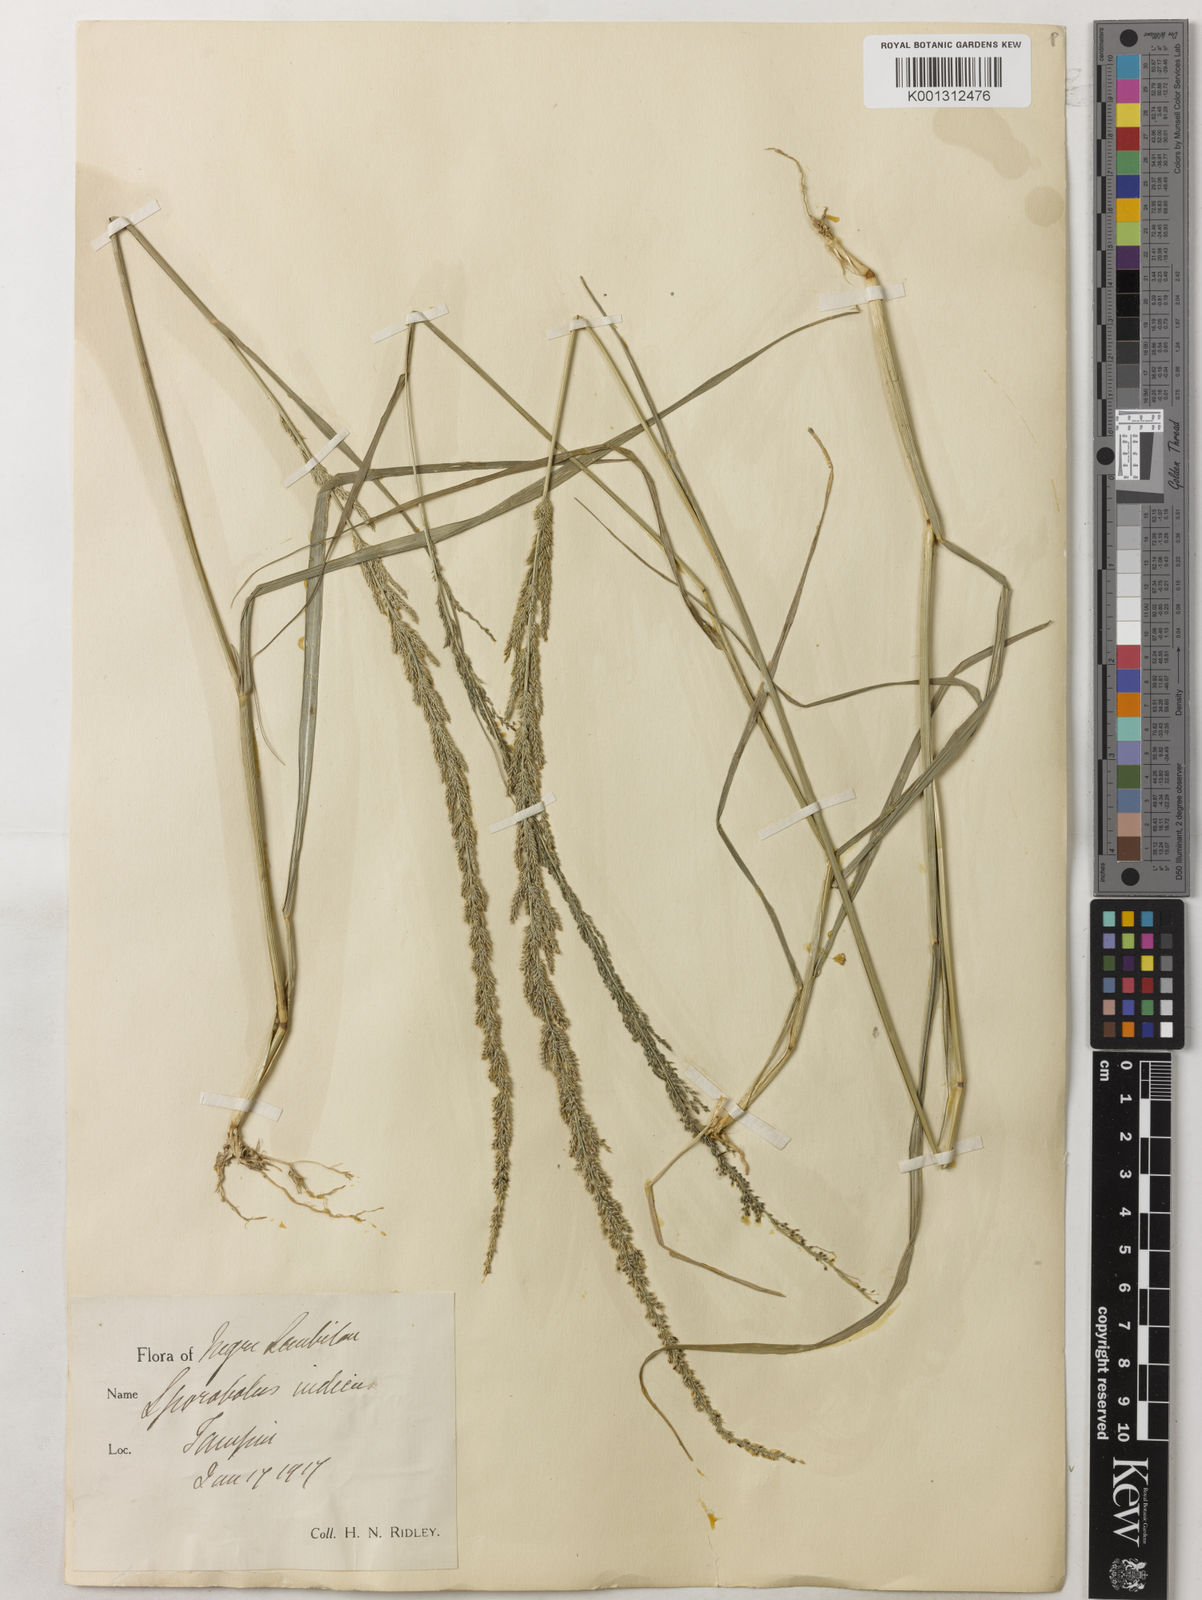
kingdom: Plantae
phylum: Tracheophyta
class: Liliopsida
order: Poales
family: Poaceae
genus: Sporobolus
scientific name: Sporobolus fertilis
